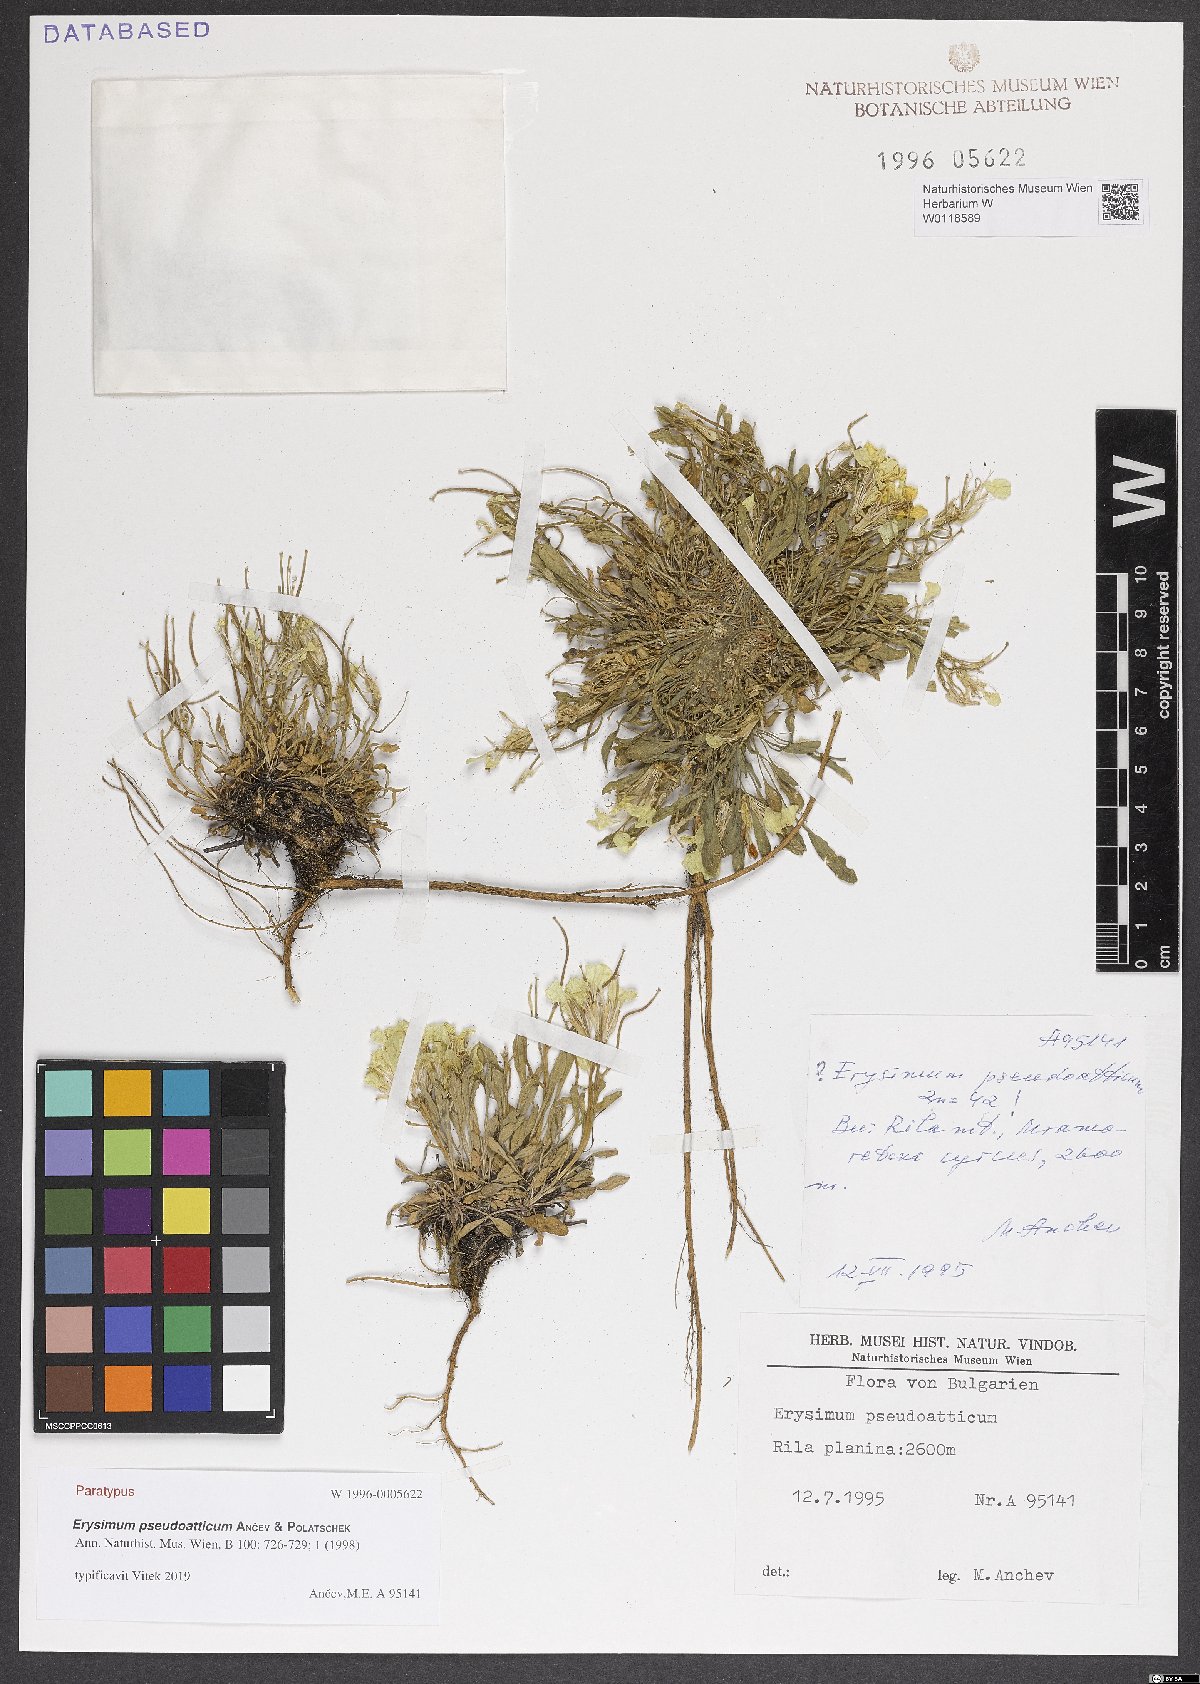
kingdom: Plantae
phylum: Tracheophyta
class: Magnoliopsida
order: Brassicales
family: Brassicaceae
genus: Erysimum
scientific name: Erysimum pseudoatticum
